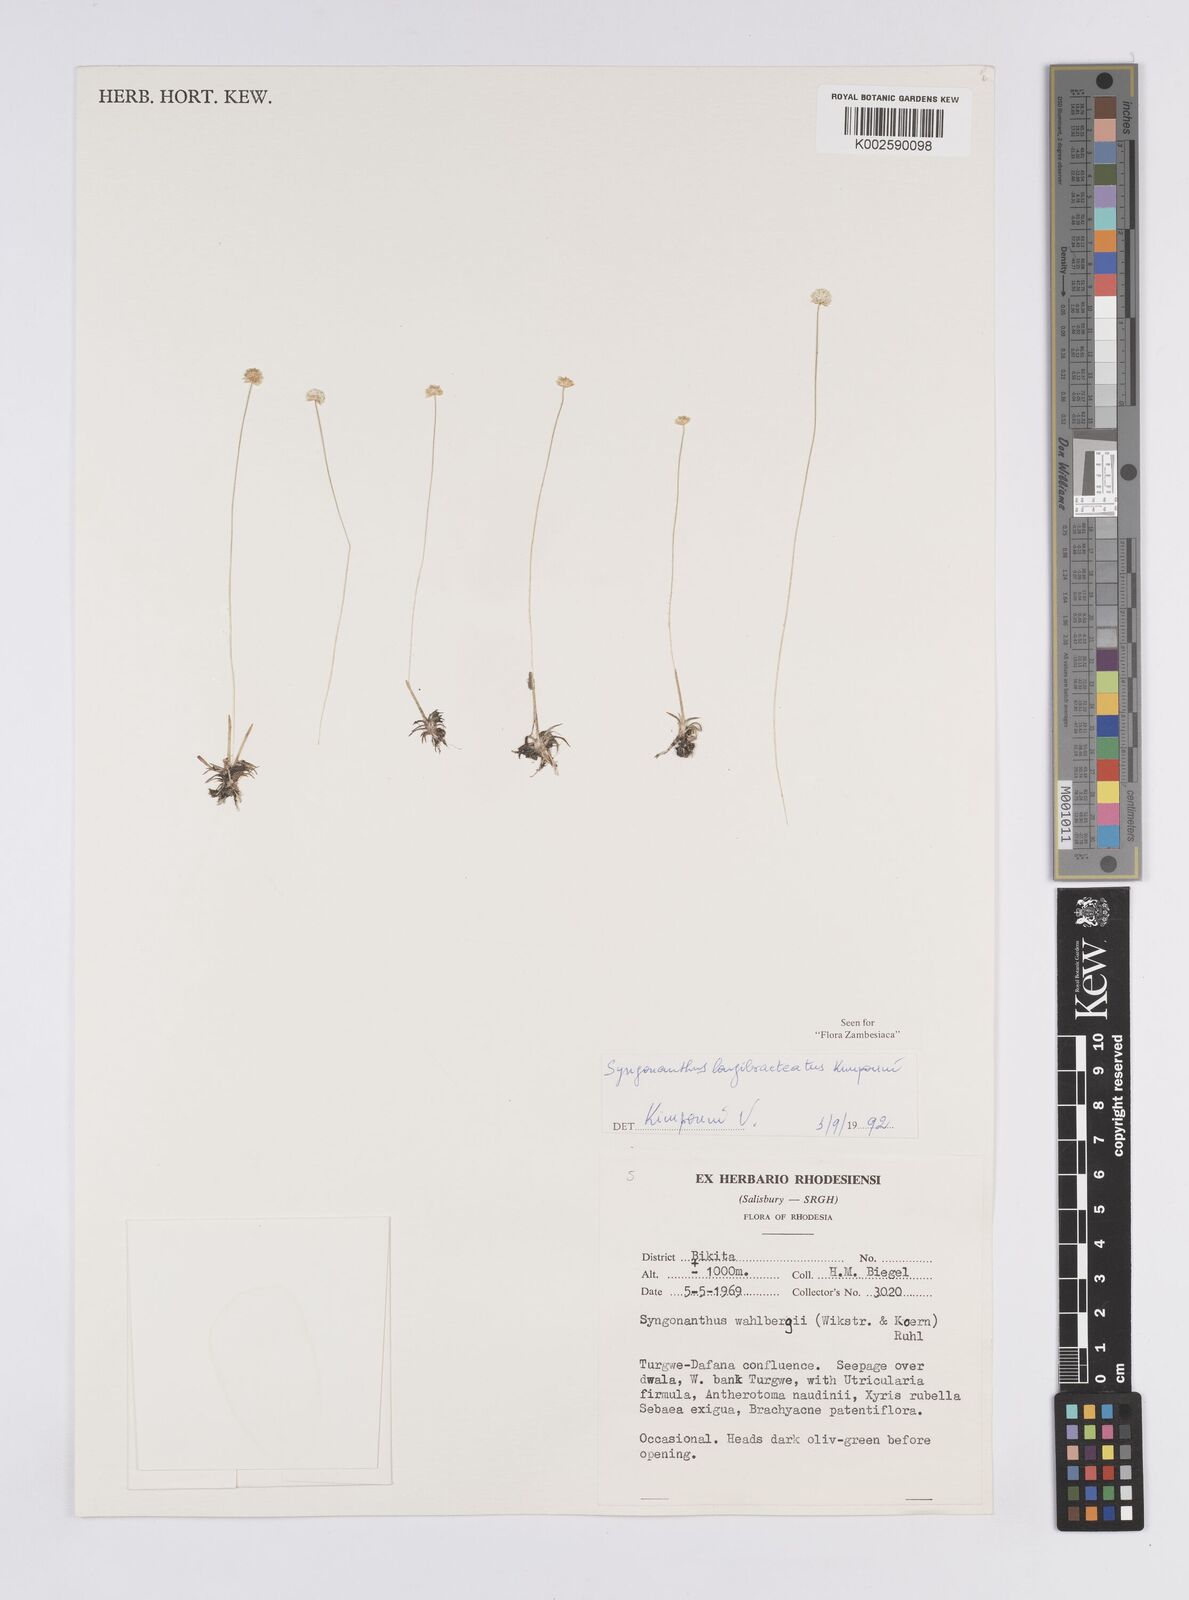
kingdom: Plantae
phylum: Tracheophyta
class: Liliopsida
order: Poales
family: Eriocaulaceae
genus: Syngonanthus
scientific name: Syngonanthus longibracteatus
